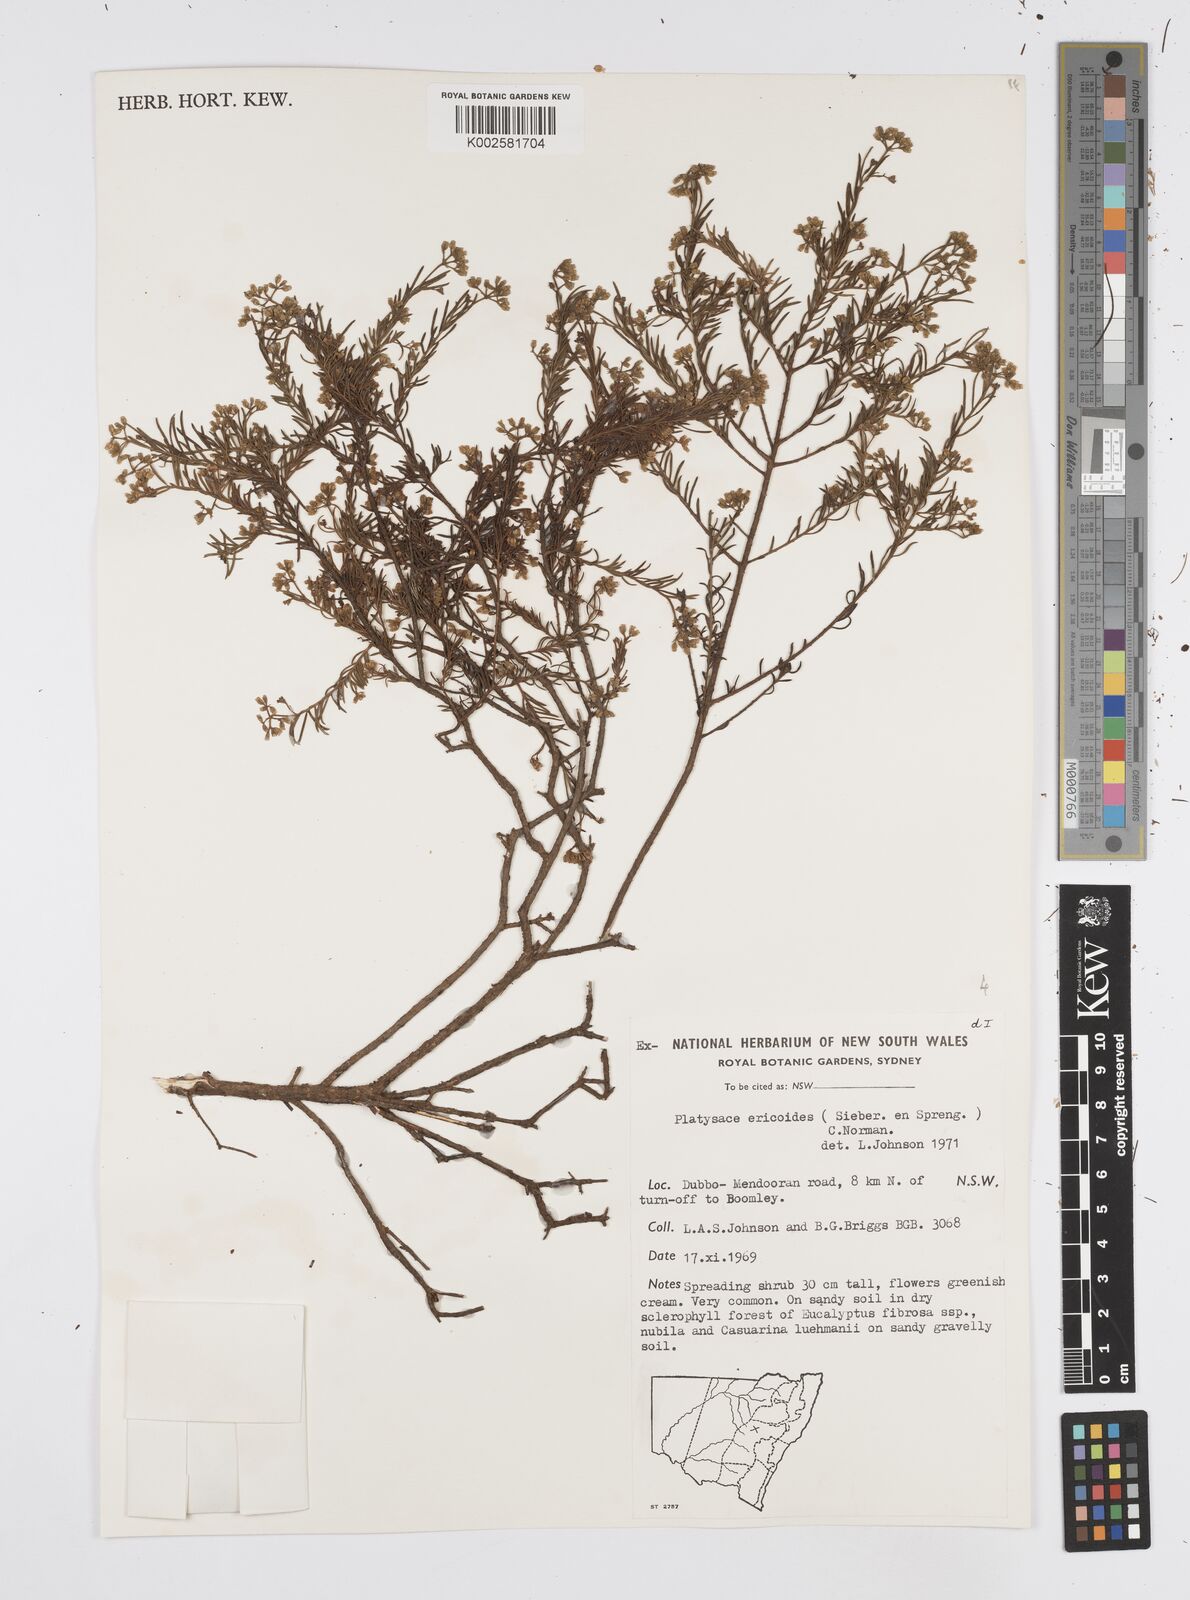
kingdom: Plantae
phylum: Tracheophyta
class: Magnoliopsida
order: Apiales
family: Apiaceae
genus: Platysace
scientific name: Platysace ericoides
